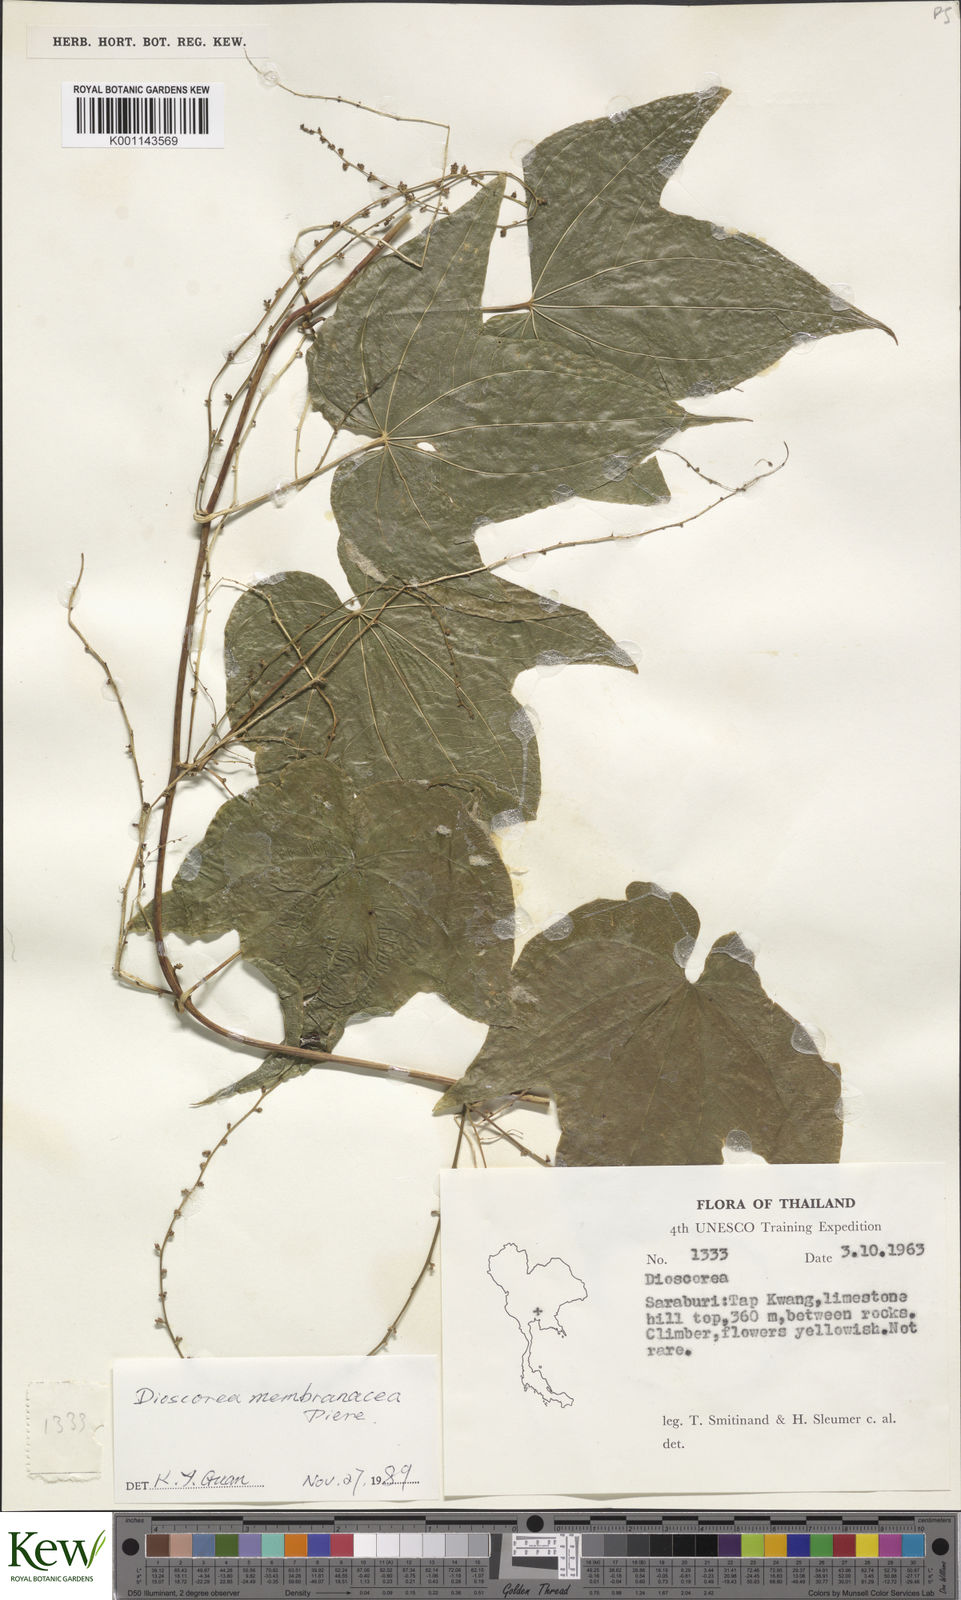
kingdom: Plantae
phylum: Tracheophyta
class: Liliopsida
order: Dioscoreales
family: Dioscoreaceae
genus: Dioscorea
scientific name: Dioscorea membranacea
